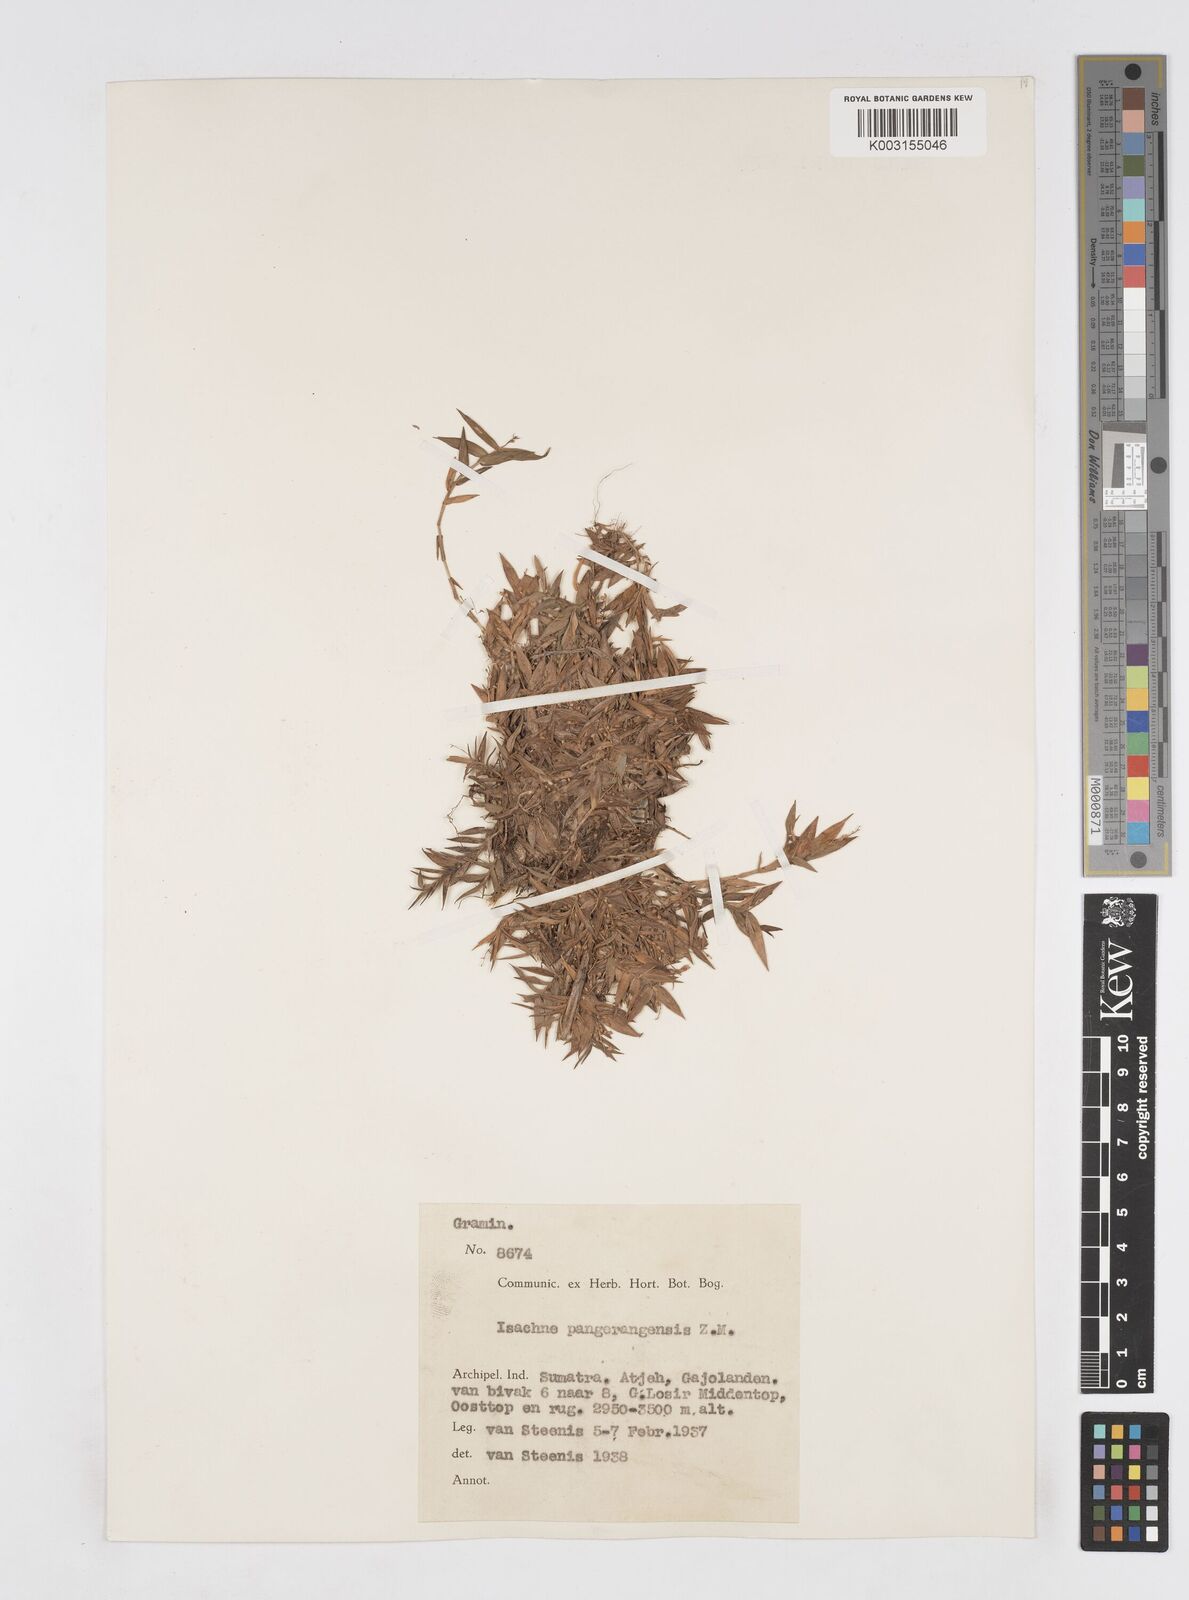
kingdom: Plantae
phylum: Tracheophyta
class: Liliopsida
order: Poales
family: Poaceae
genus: Isachne
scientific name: Isachne pangerangensis
